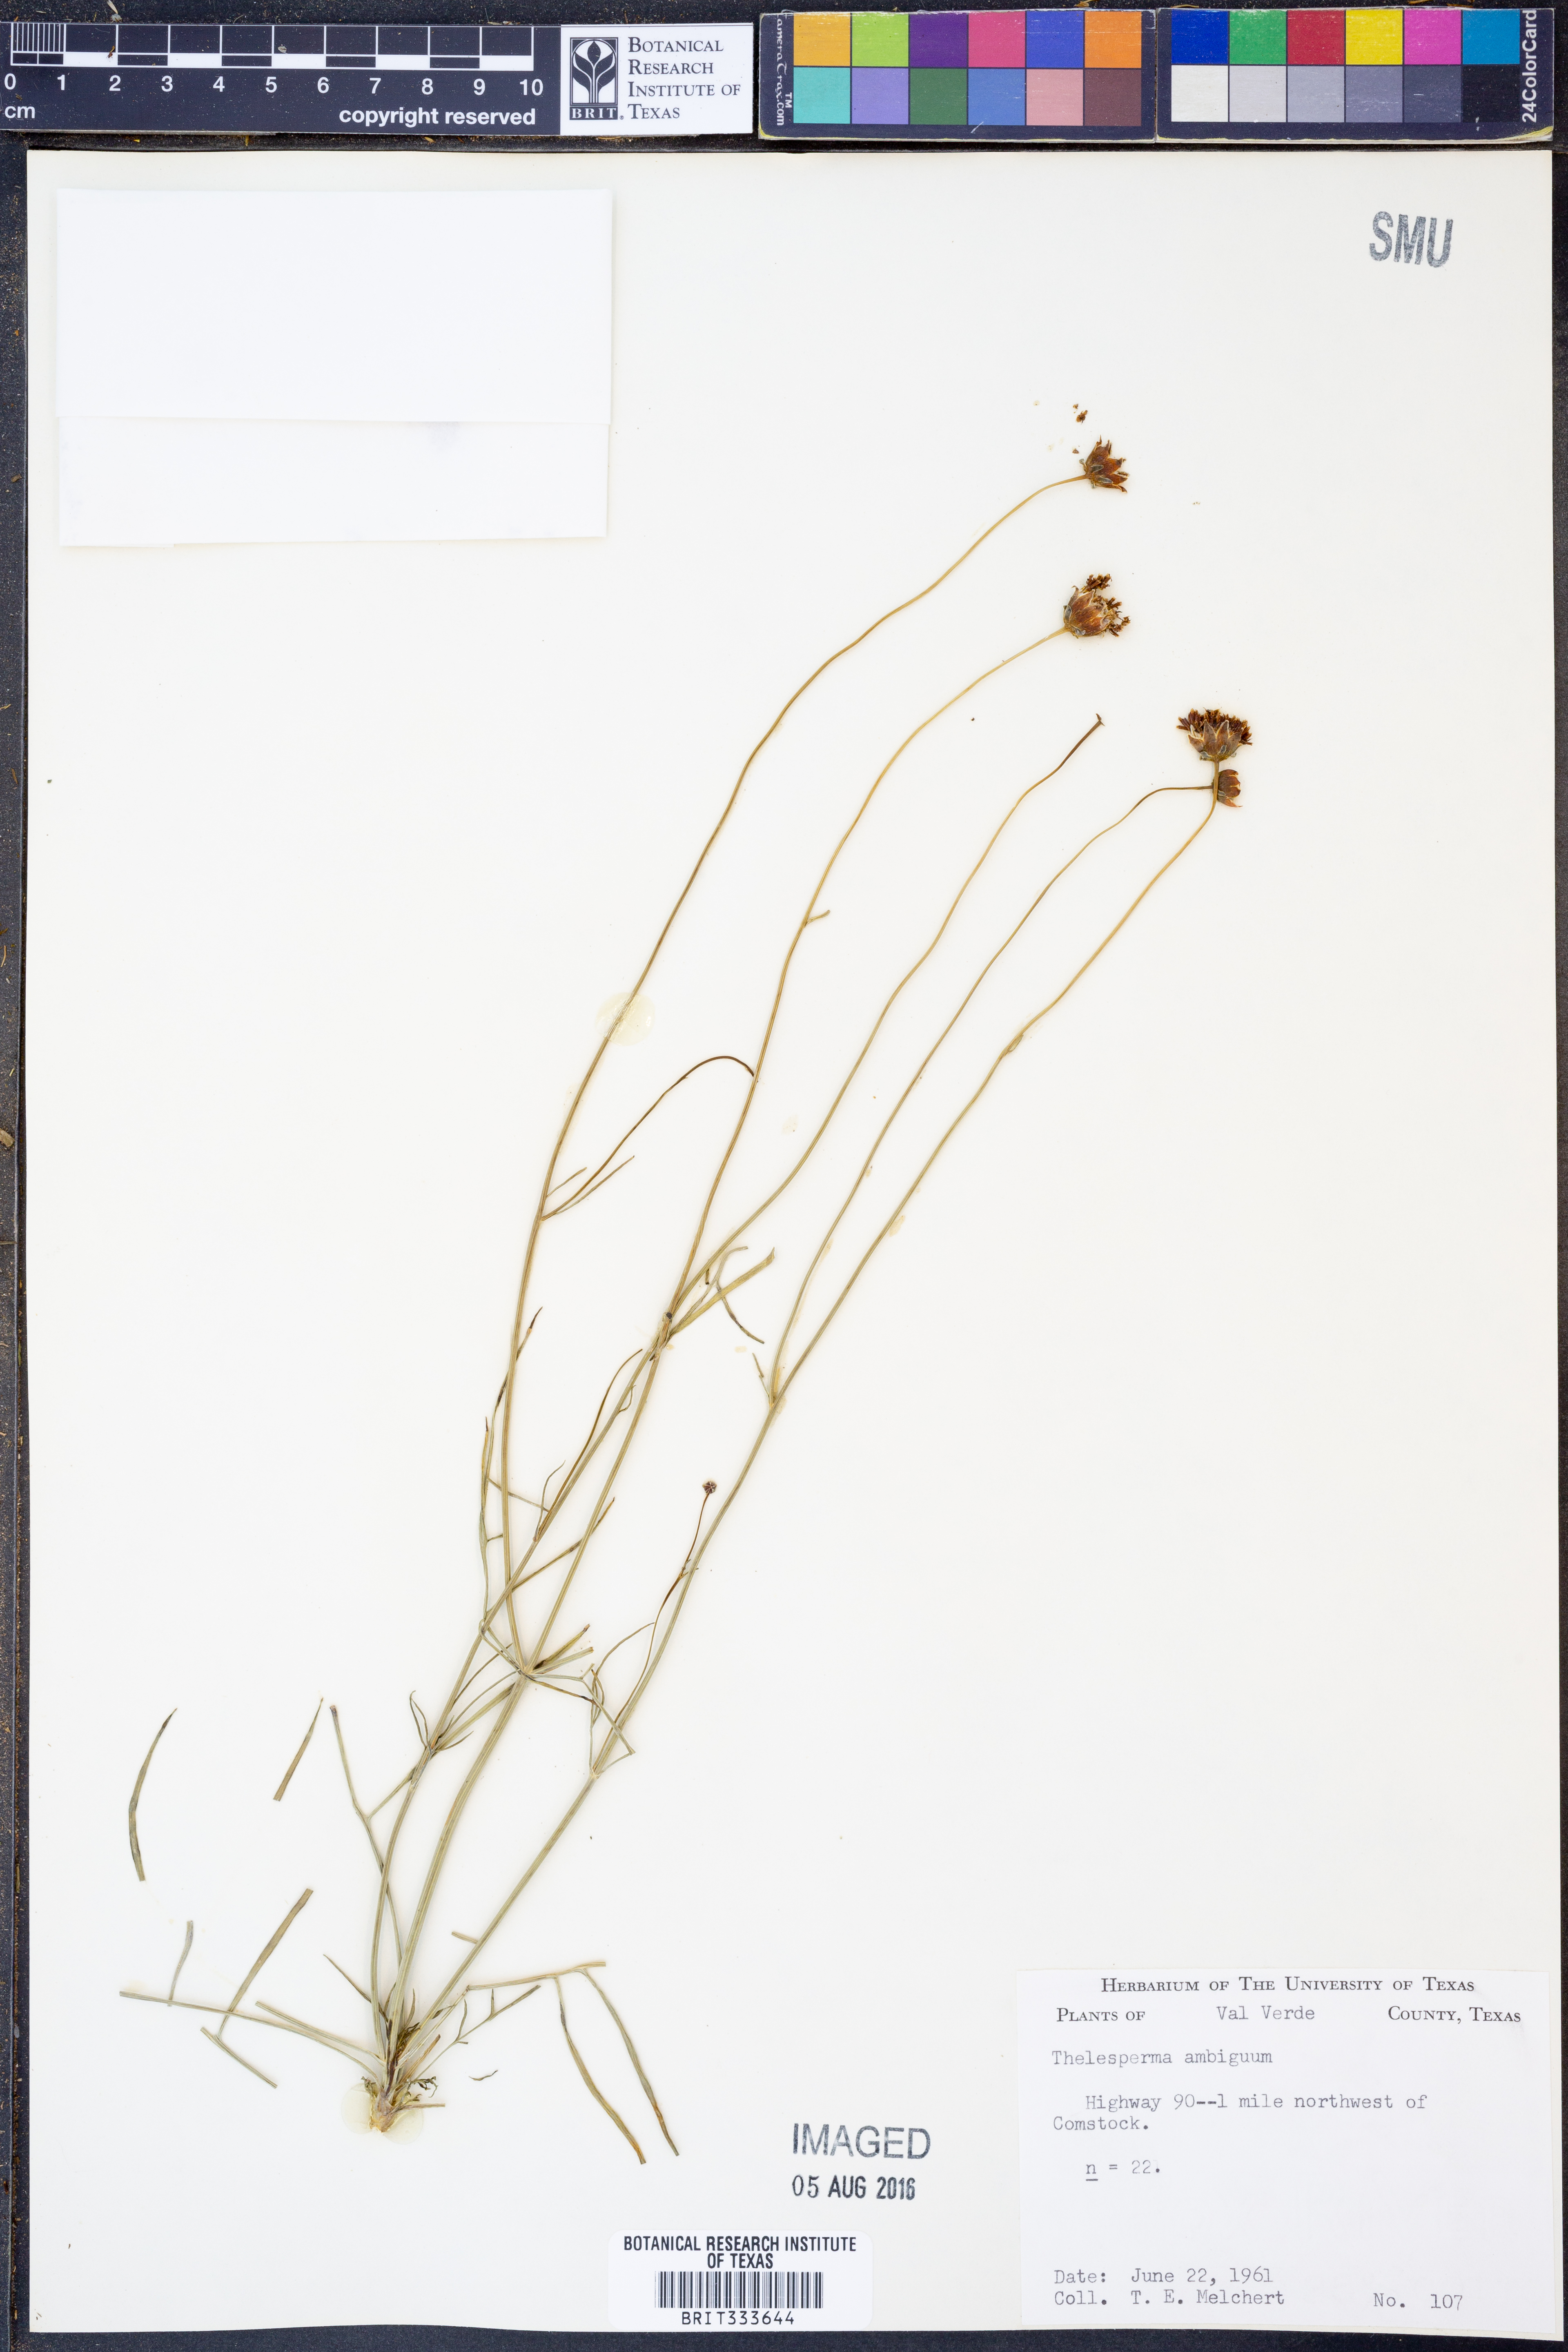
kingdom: Plantae
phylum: Tracheophyta
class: Magnoliopsida
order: Asterales
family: Asteraceae
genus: Thelesperma
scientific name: Thelesperma ambiguum
